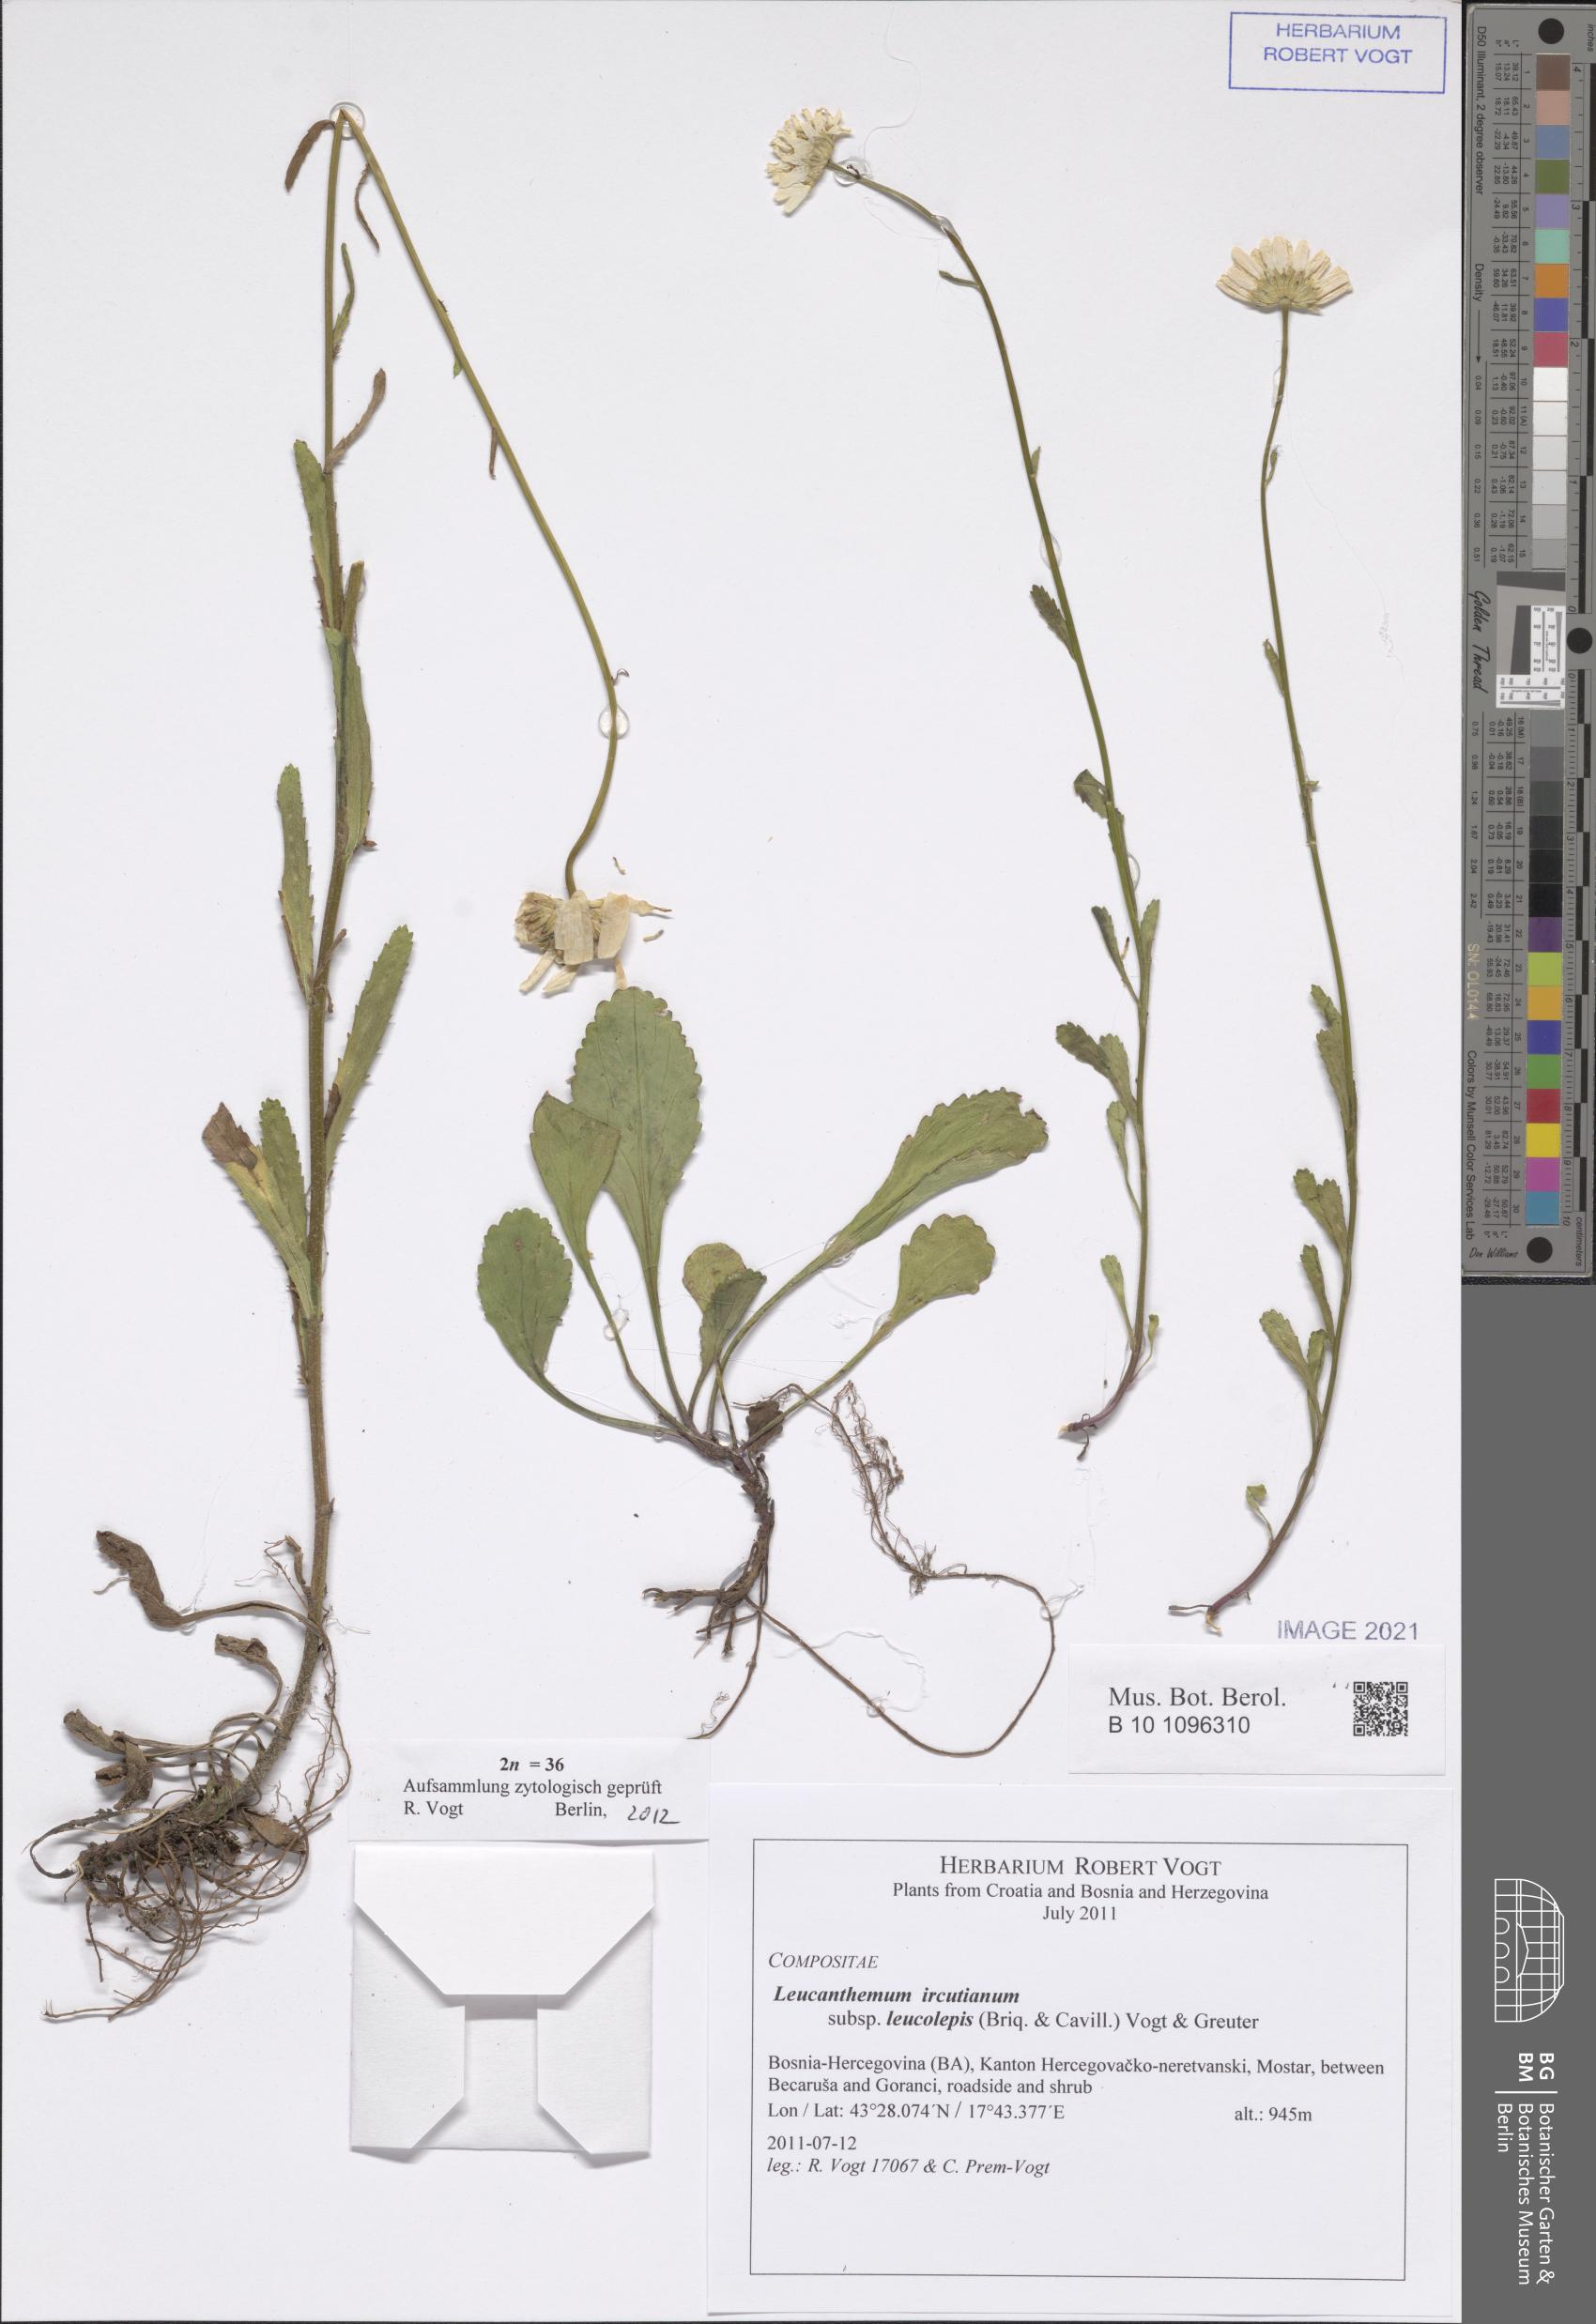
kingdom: Plantae
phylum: Tracheophyta
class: Magnoliopsida
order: Asterales
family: Asteraceae
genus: Leucanthemum
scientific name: Leucanthemum ircutianum
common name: Daisy
